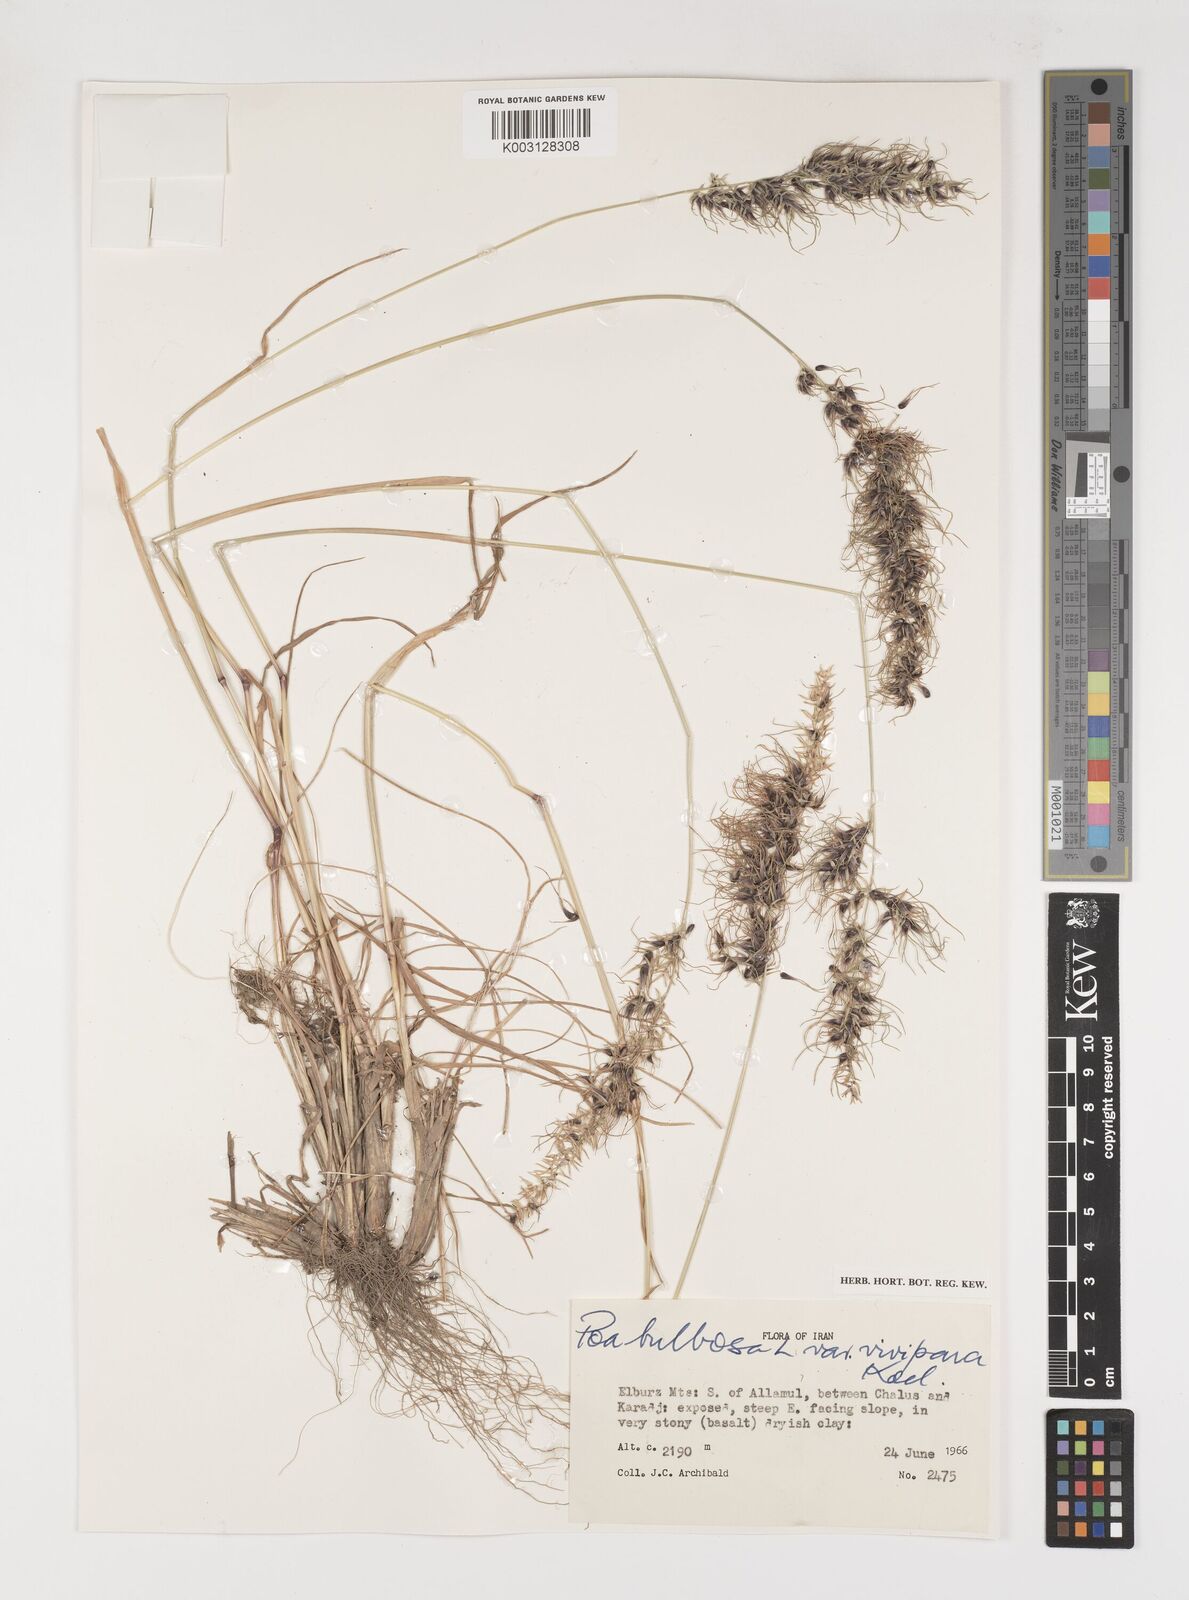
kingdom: Plantae
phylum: Tracheophyta
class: Liliopsida
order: Poales
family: Poaceae
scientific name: Poaceae
